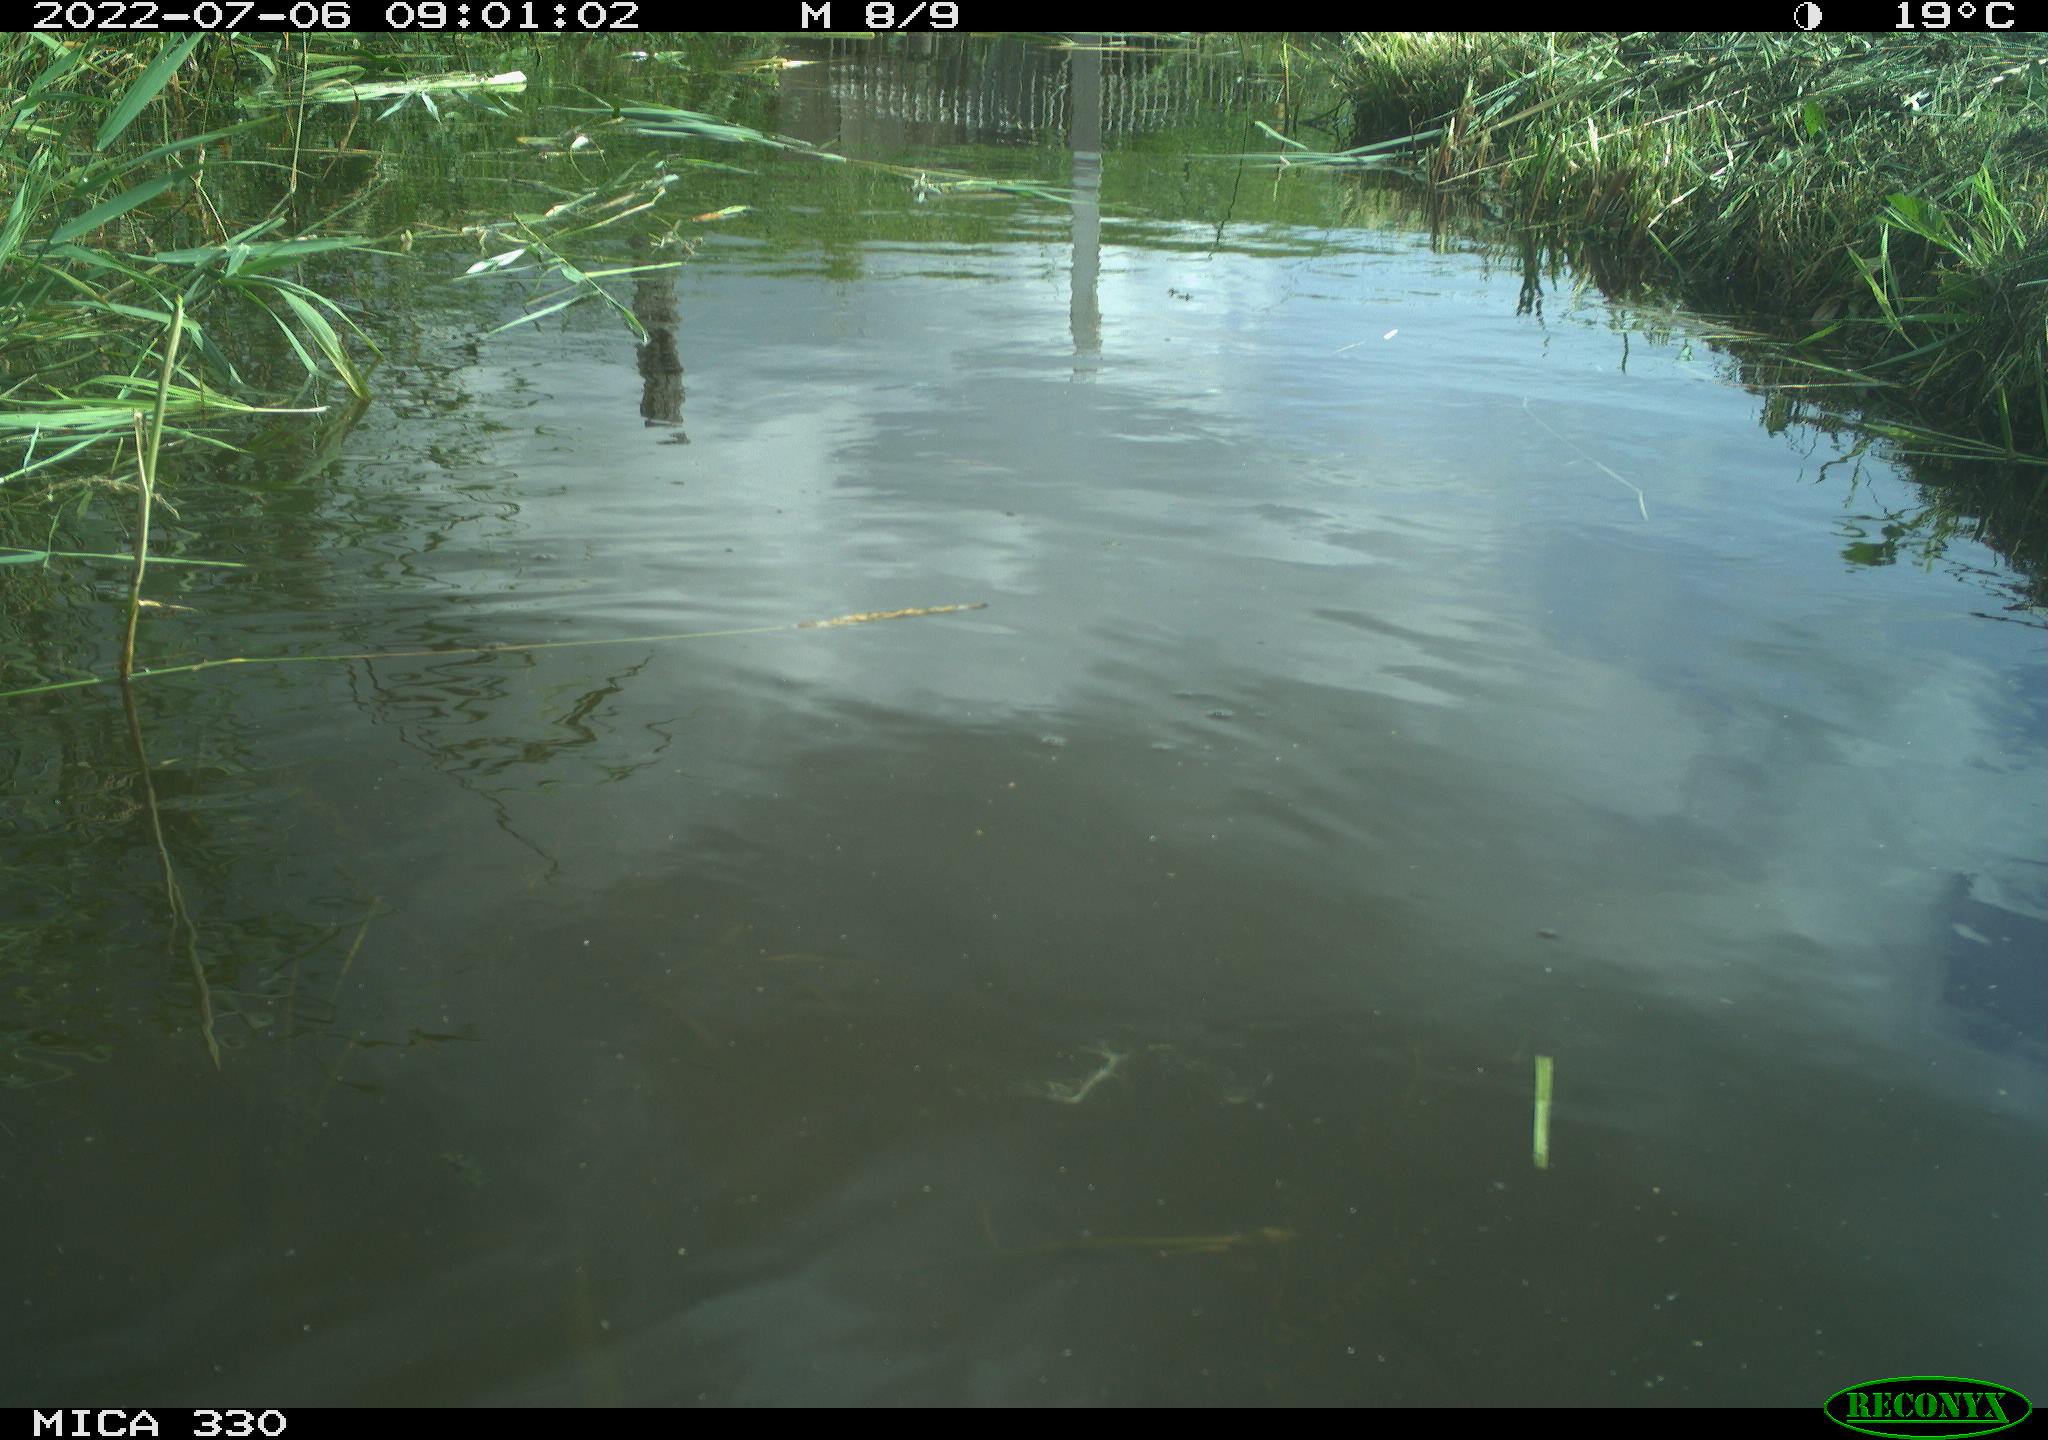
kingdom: Animalia
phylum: Chordata
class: Aves
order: Anseriformes
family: Anatidae
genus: Anas
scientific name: Anas platyrhynchos
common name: Mallard
